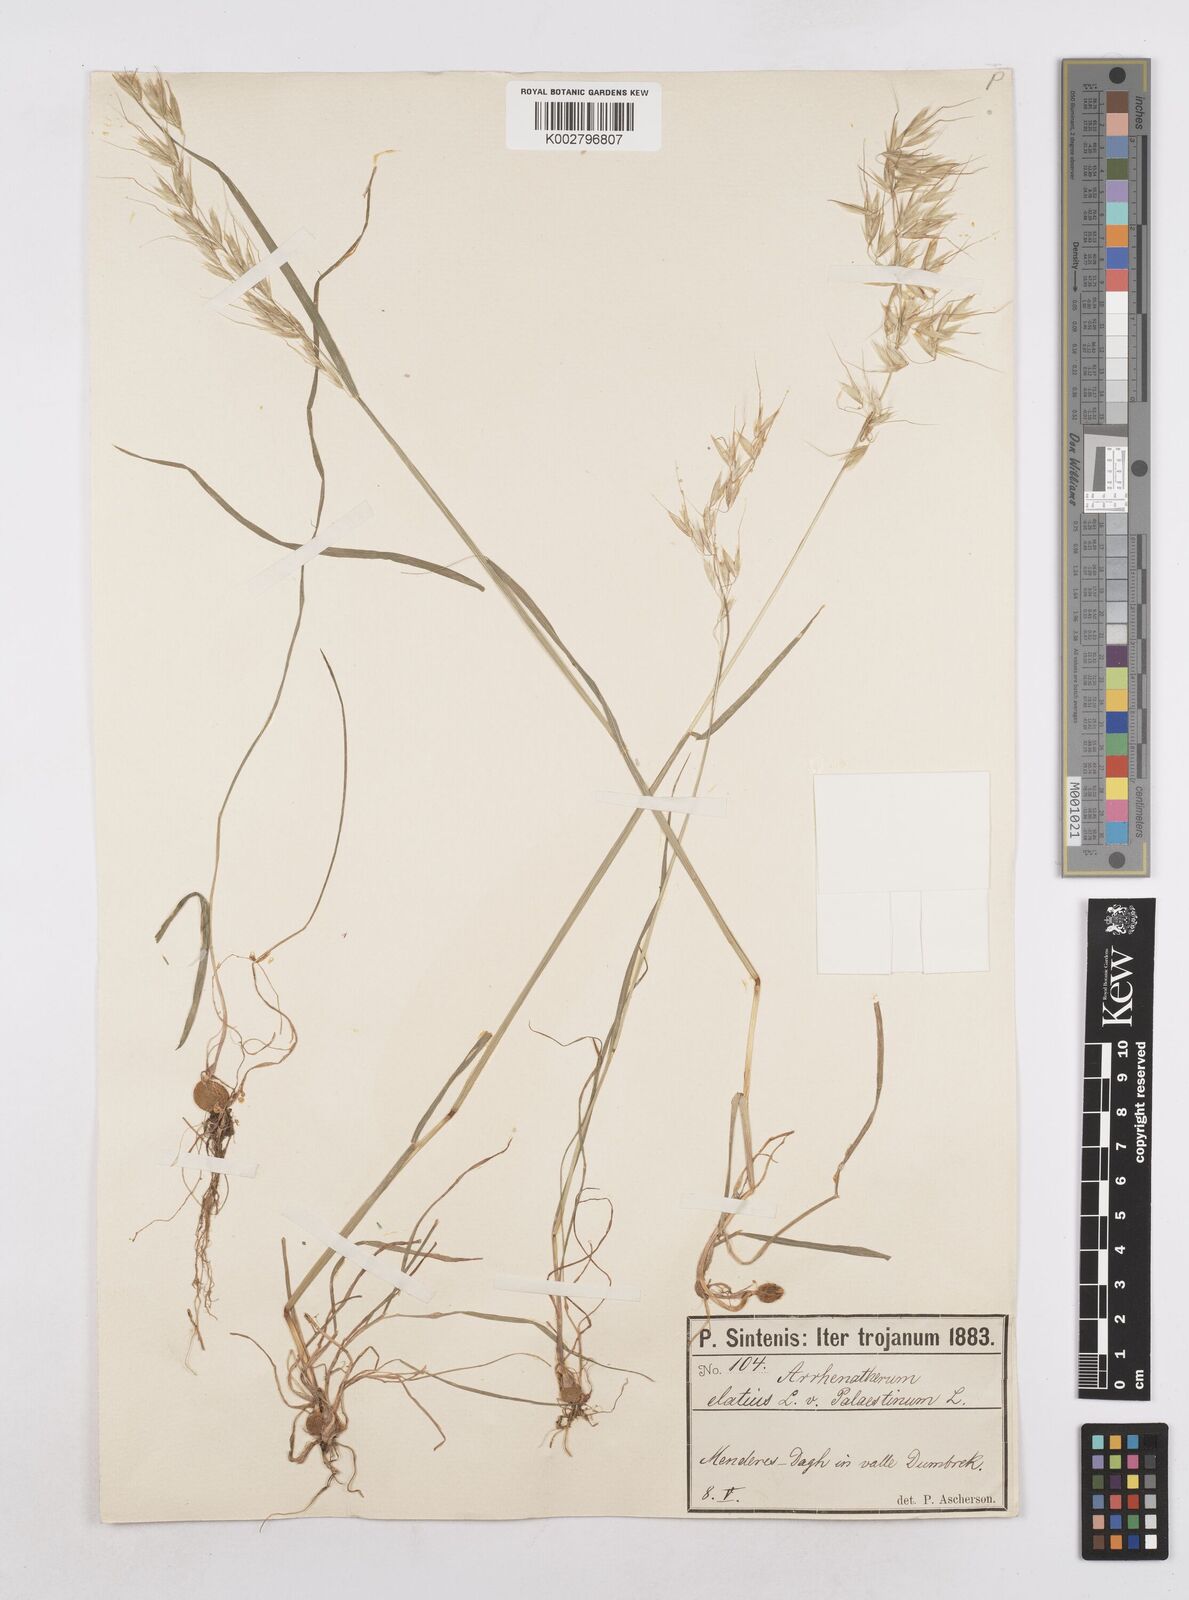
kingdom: Plantae
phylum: Tracheophyta
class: Liliopsida
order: Poales
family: Poaceae
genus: Arrhenatherum
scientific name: Arrhenatherum palaestinum
